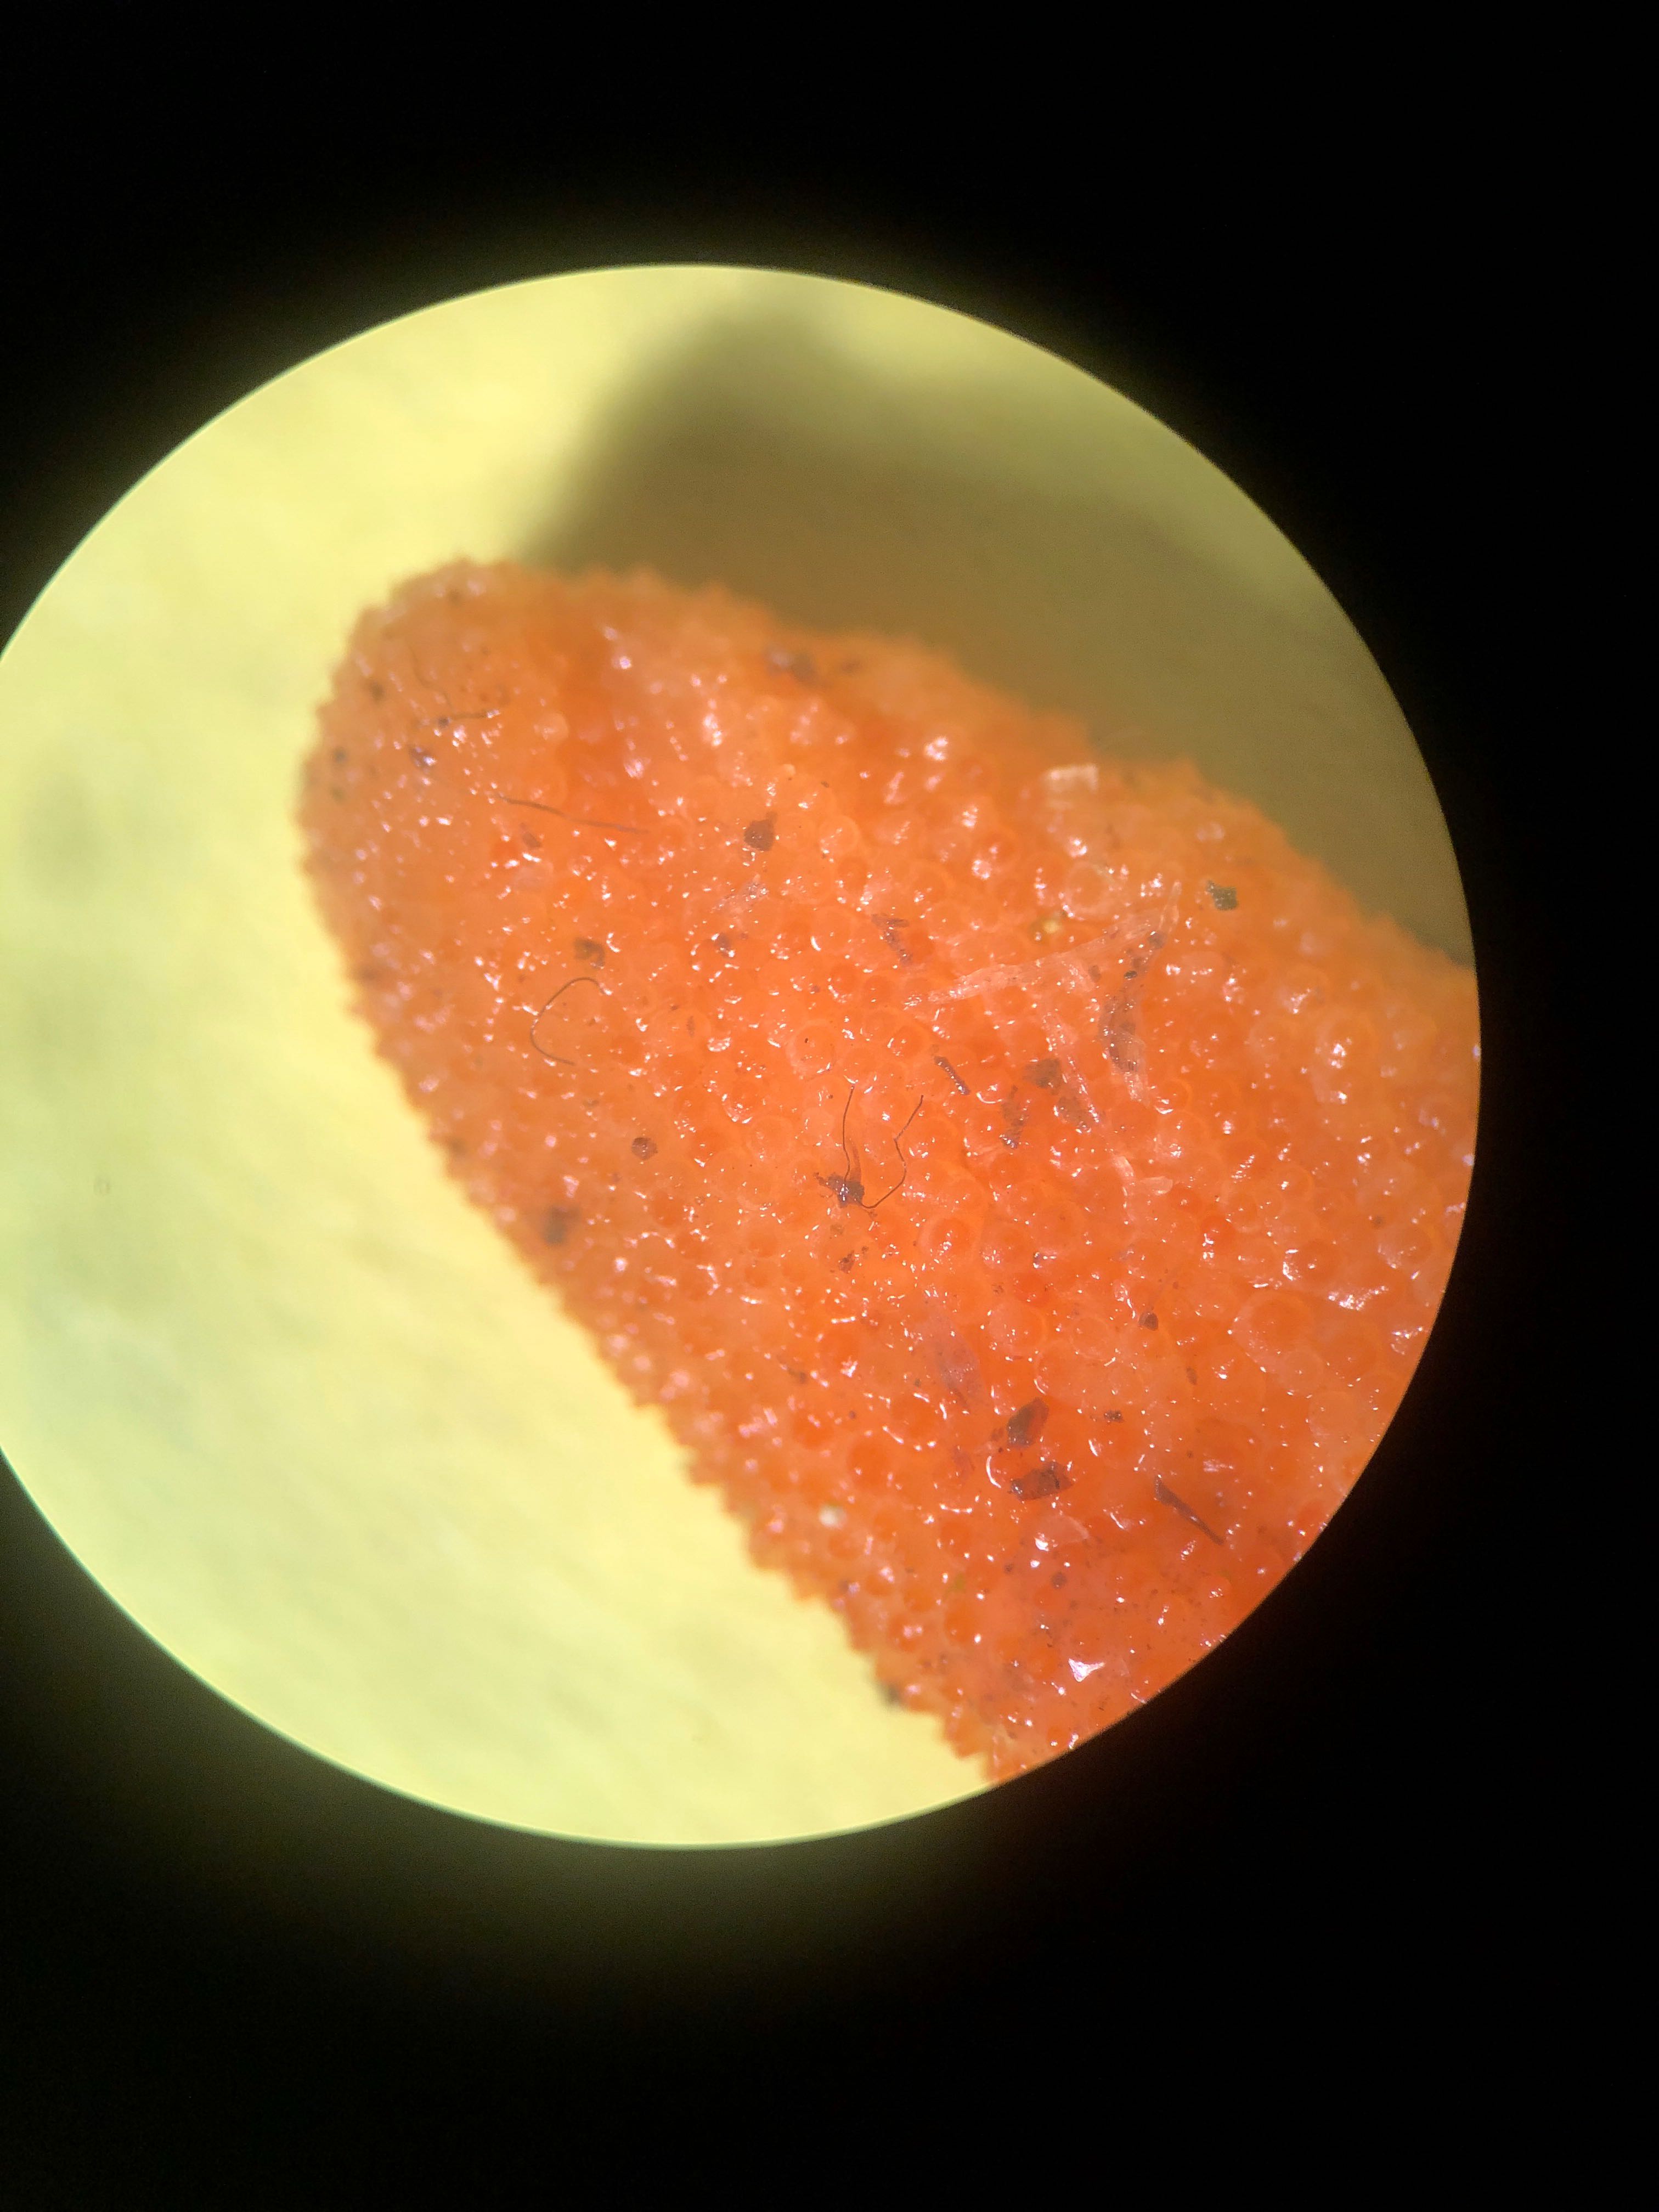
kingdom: Fungi
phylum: Ascomycota
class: Sordariomycetes
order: Hypocreales
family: Cordycipitaceae
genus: Cordyceps
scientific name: Cordyceps militaris
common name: puppe-snyltekølle
